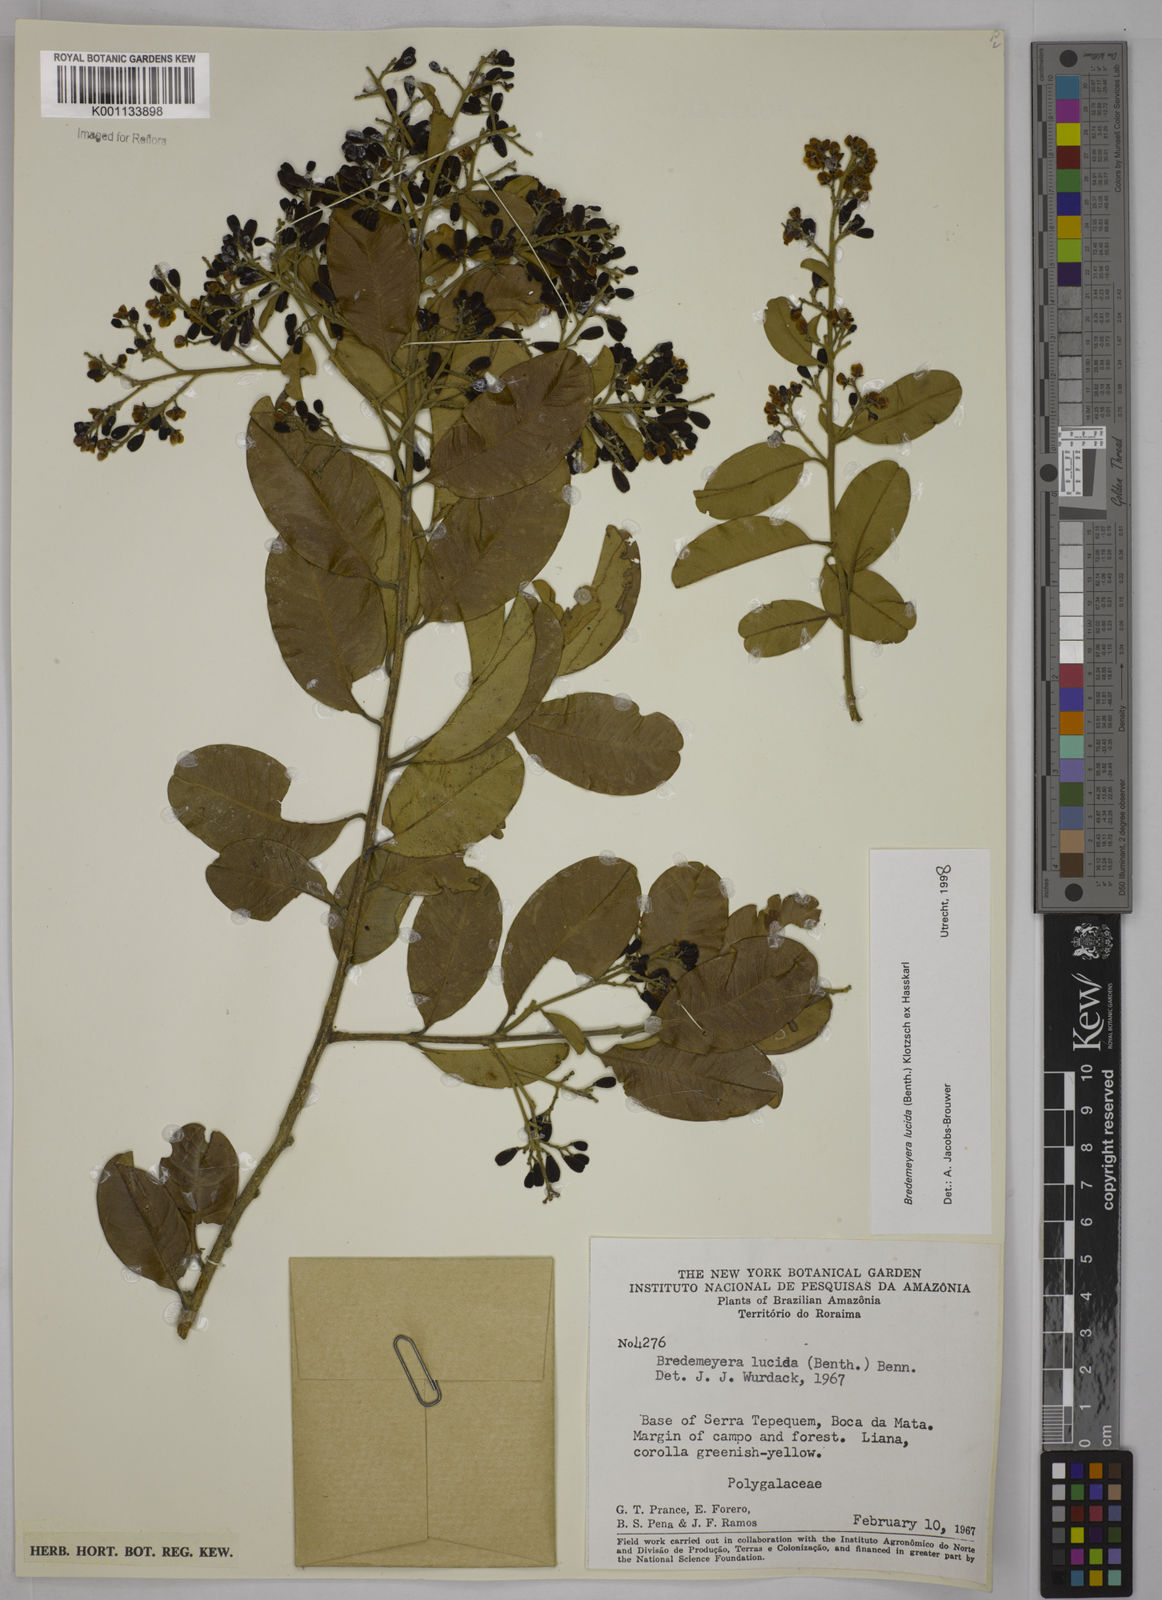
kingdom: Plantae
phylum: Tracheophyta
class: Magnoliopsida
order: Fabales
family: Polygalaceae
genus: Bredemeyera
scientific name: Bredemeyera lucida
